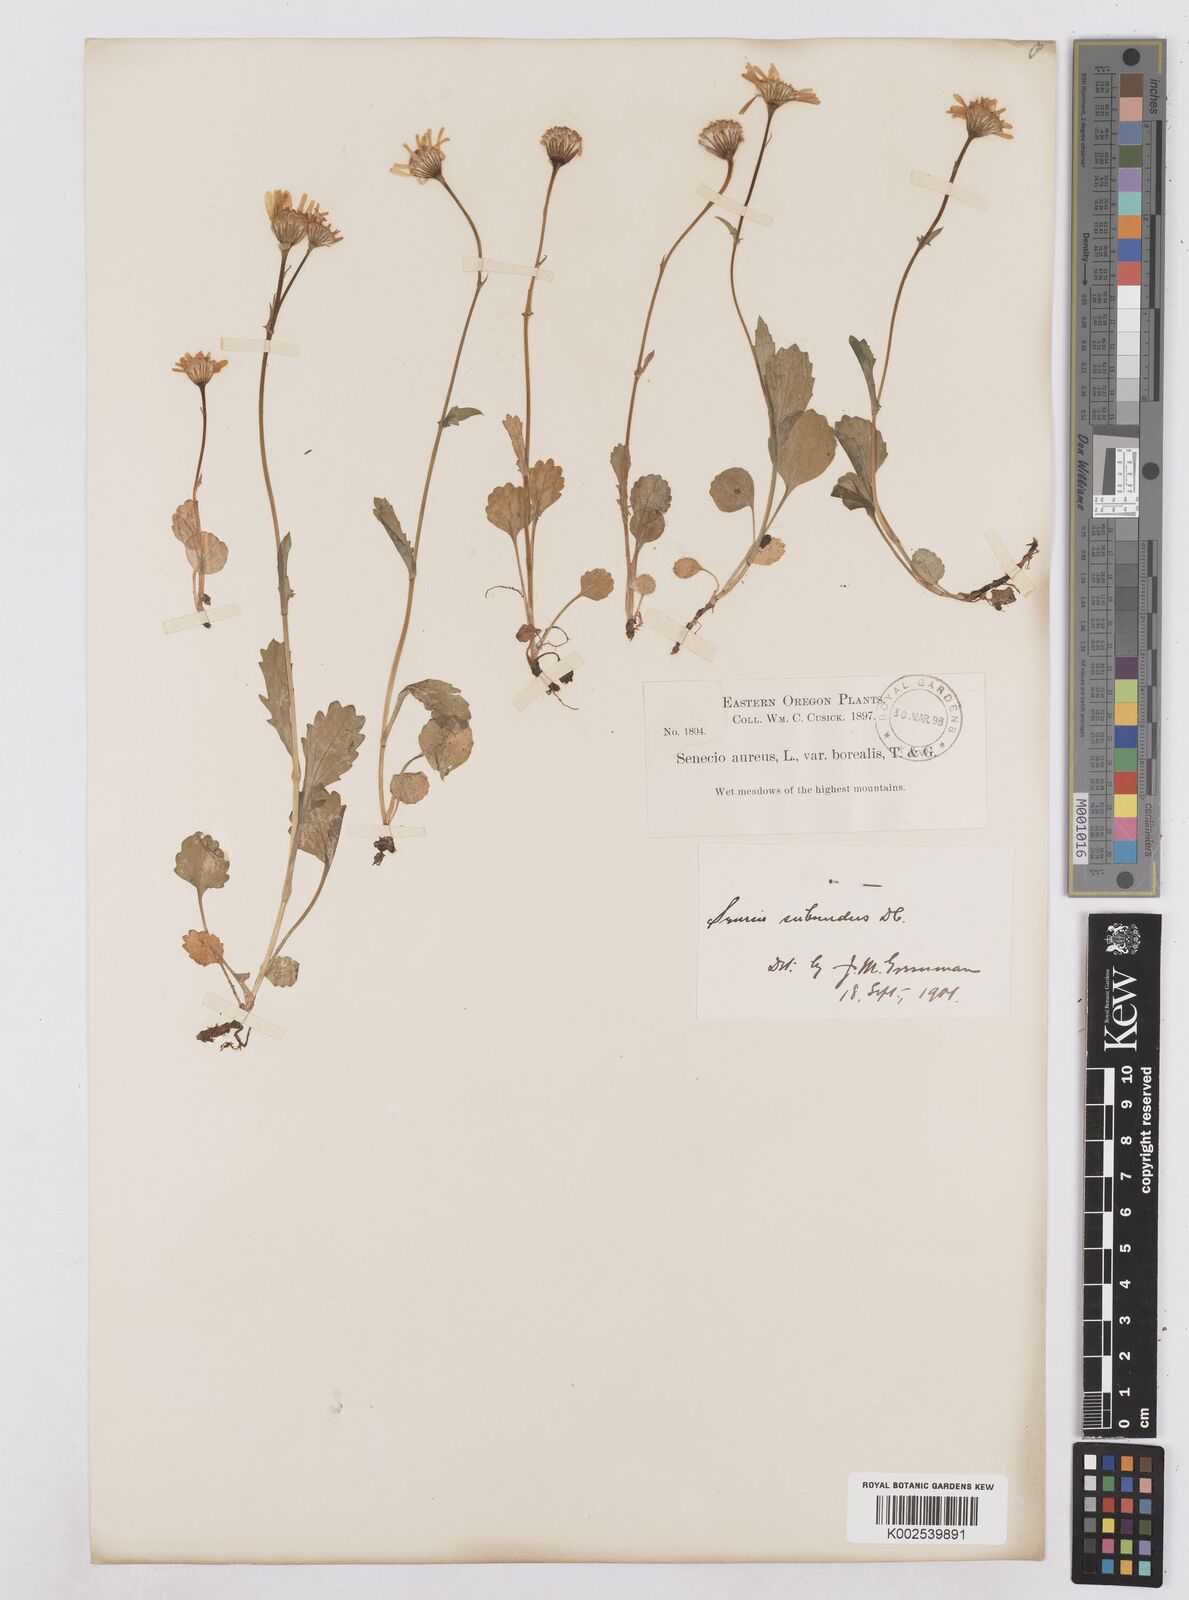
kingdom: Plantae
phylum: Tracheophyta
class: Magnoliopsida
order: Asterales
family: Asteraceae
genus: Packera
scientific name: Packera aurea
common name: Golden groundsel
